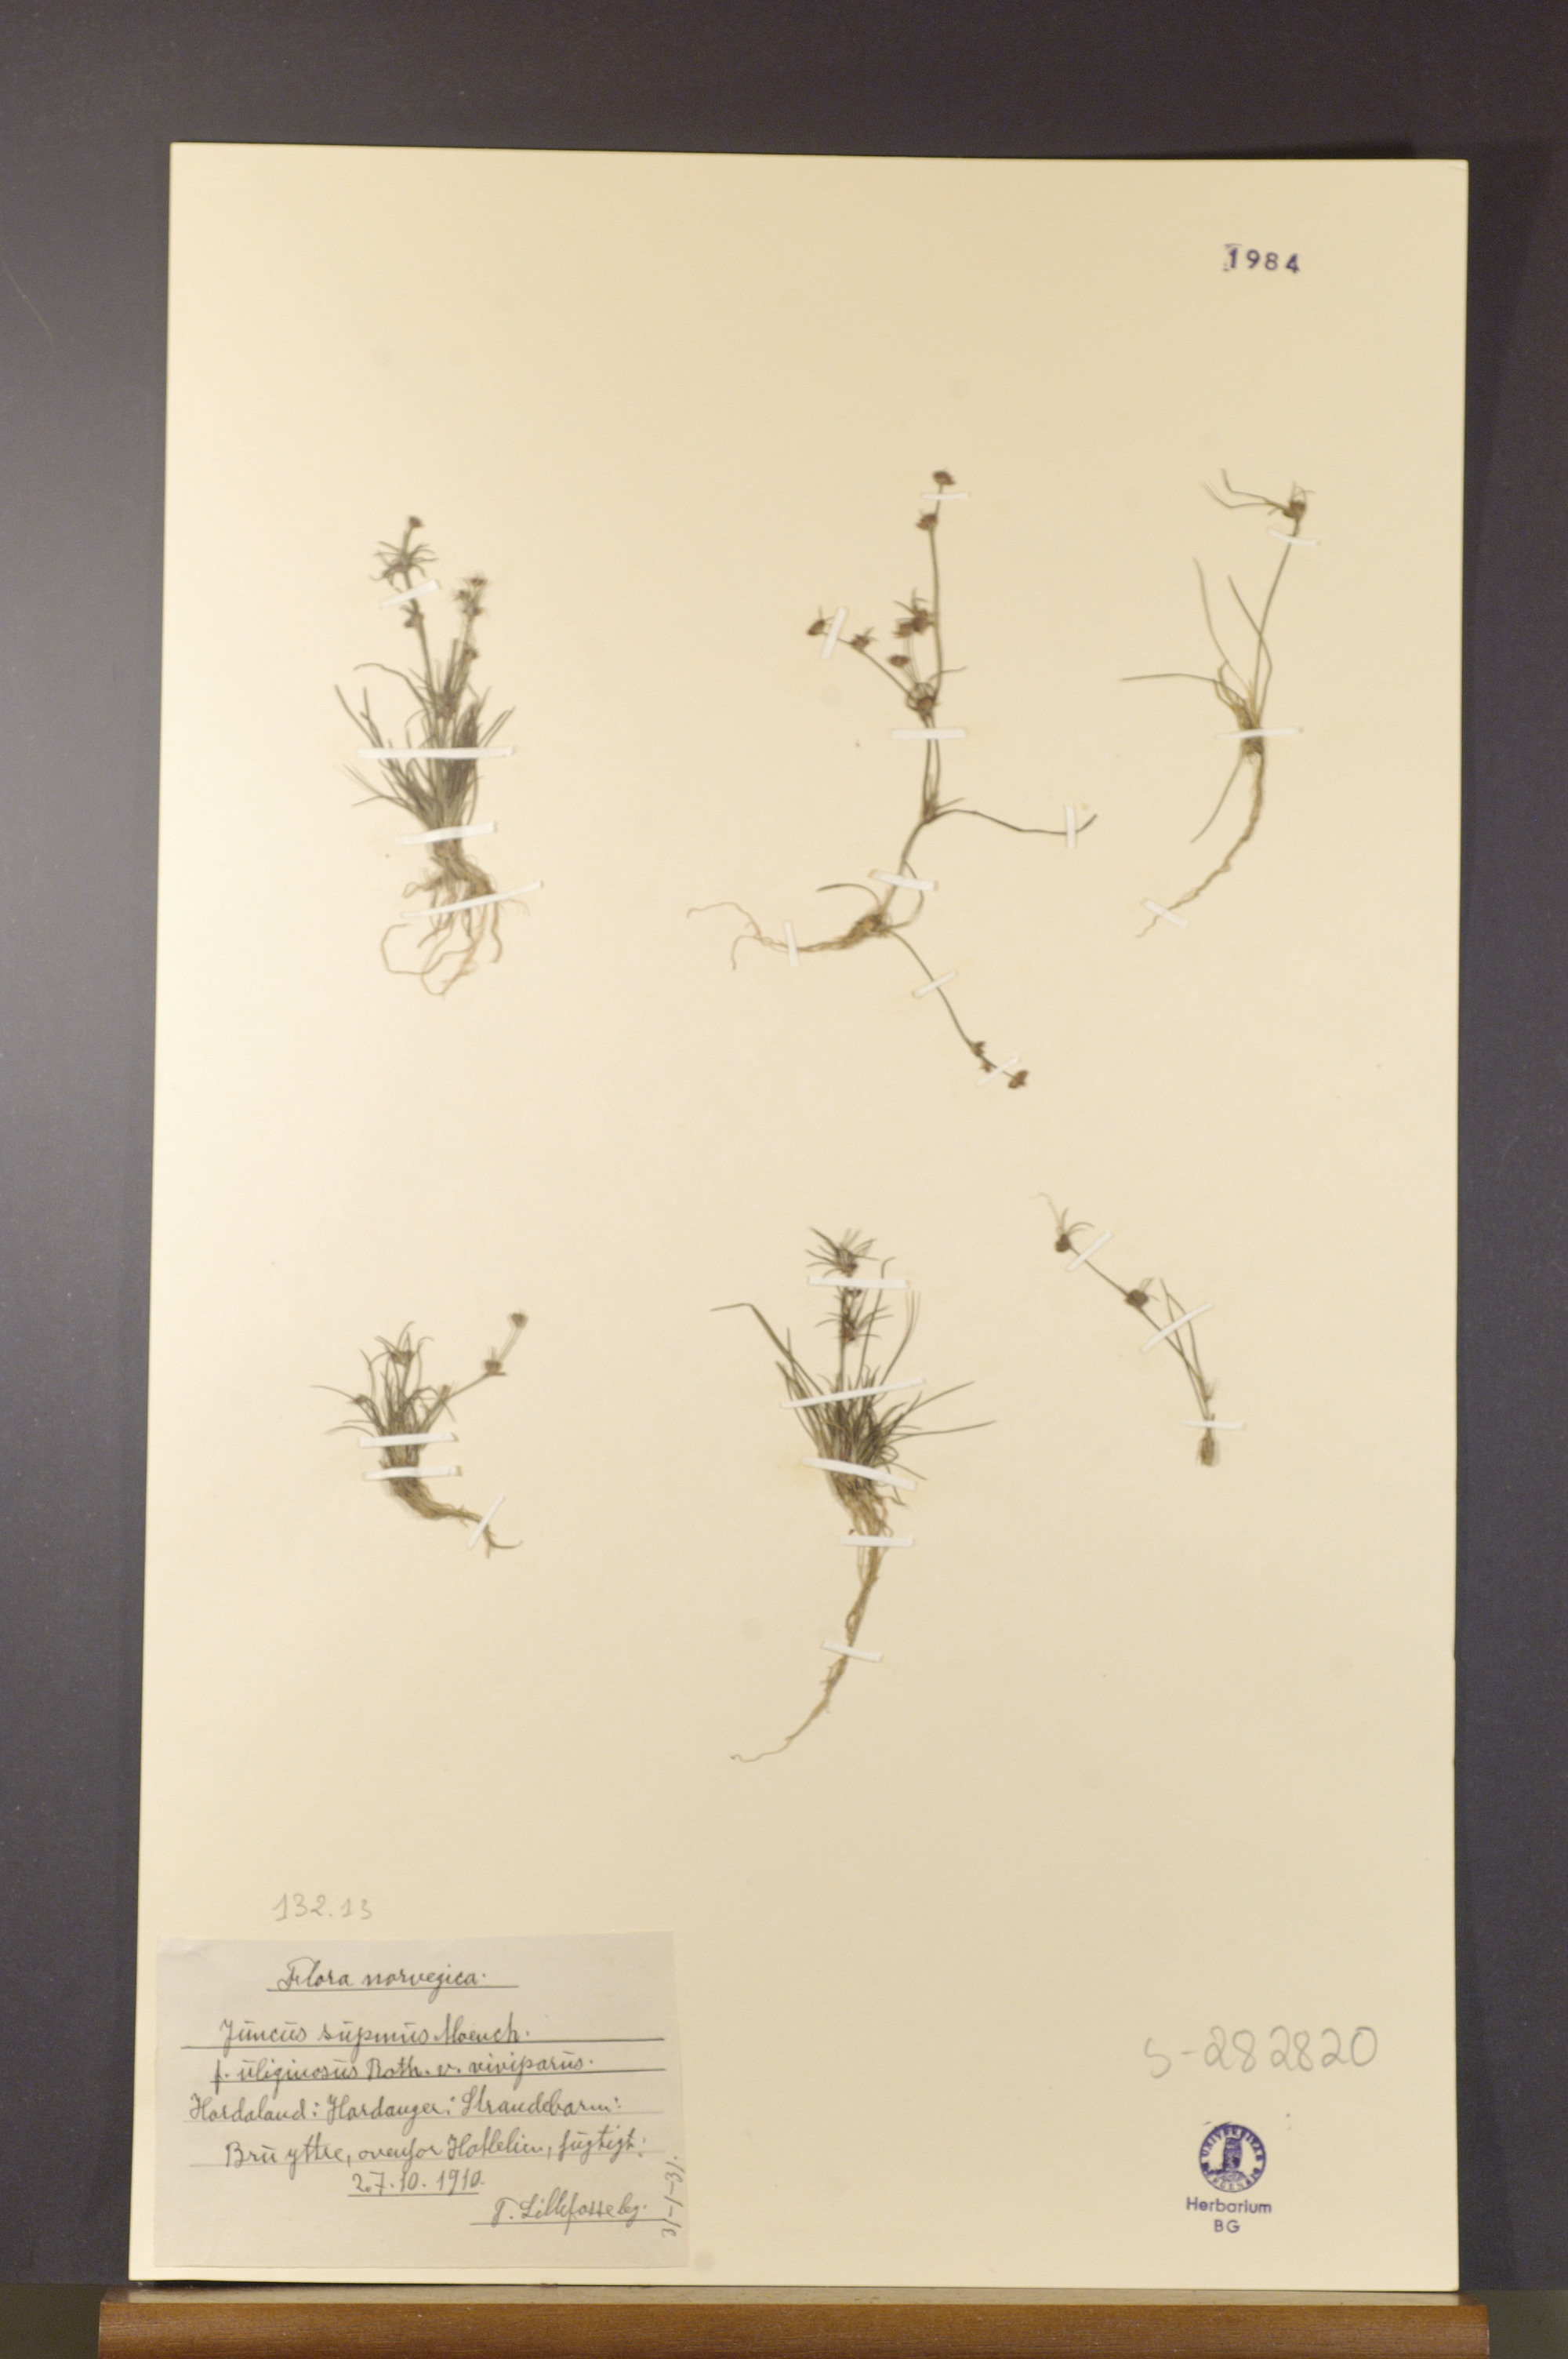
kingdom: Plantae
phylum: Tracheophyta
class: Liliopsida
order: Poales
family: Juncaceae
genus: Juncus
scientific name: Juncus bulbosus
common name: Bulbous rush
